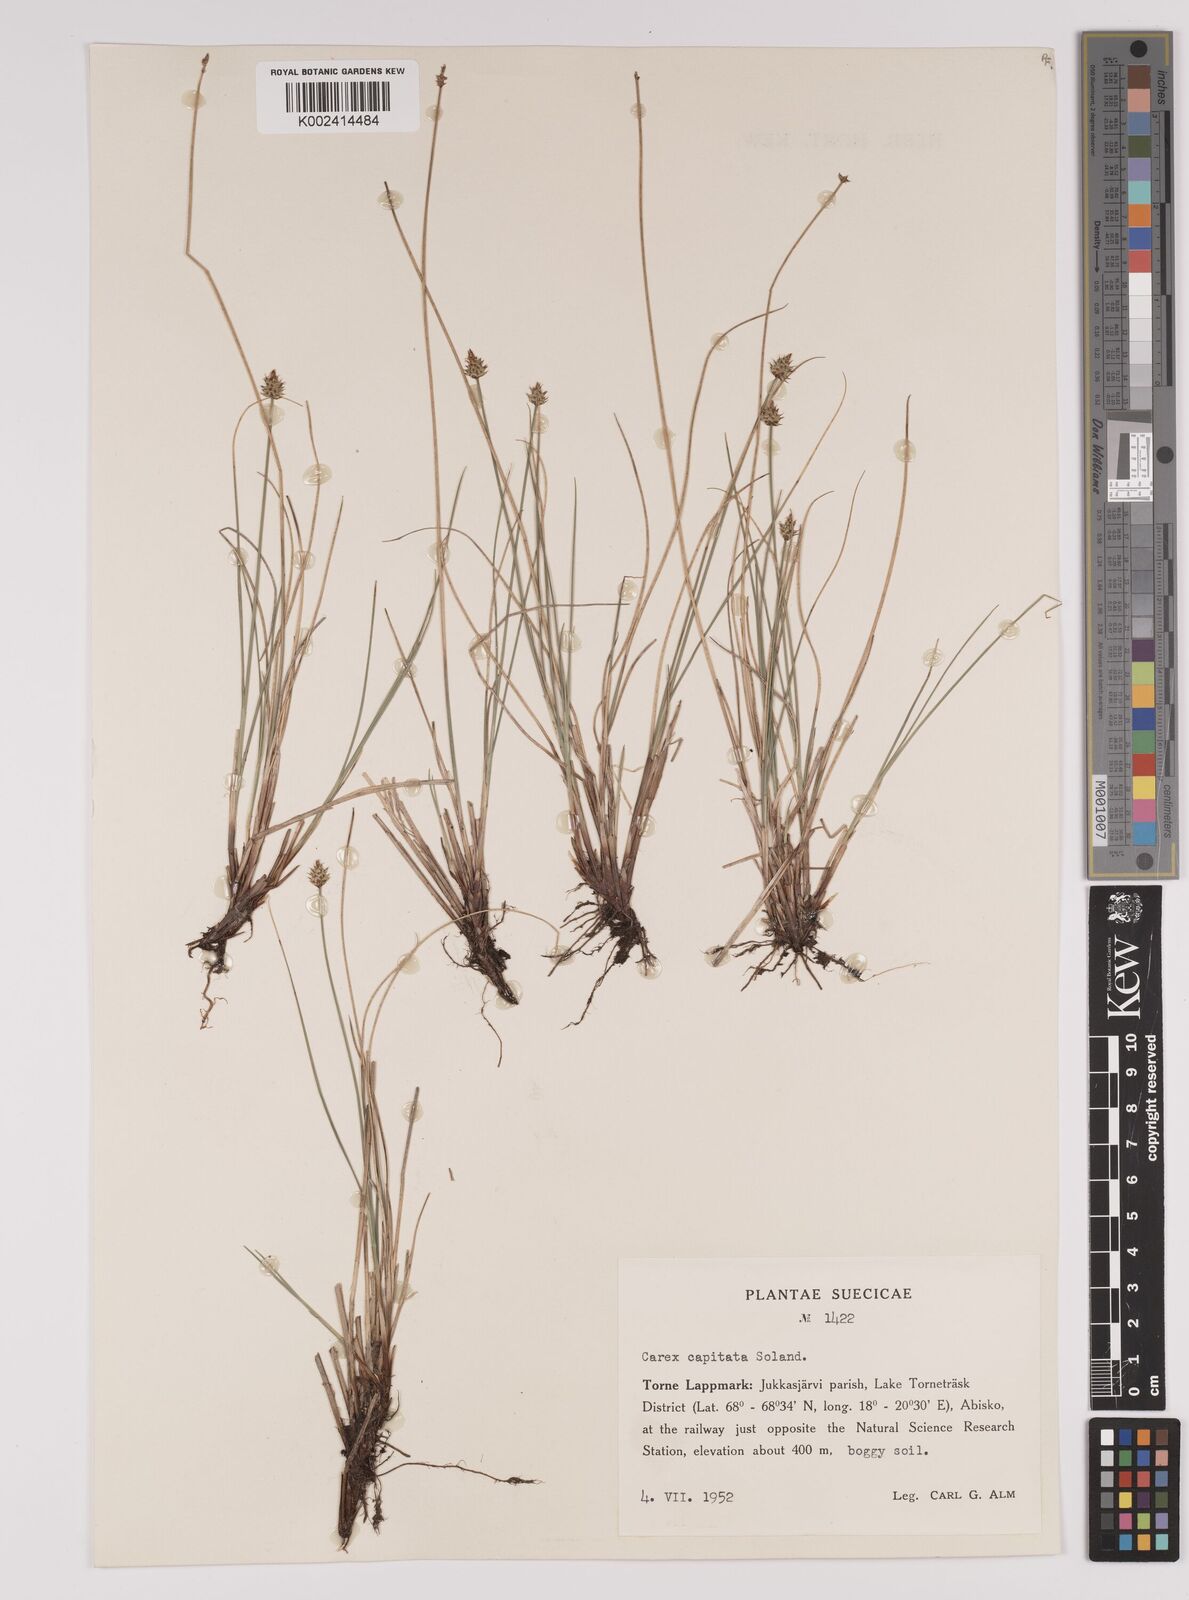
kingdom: Plantae
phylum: Tracheophyta
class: Liliopsida
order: Poales
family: Cyperaceae
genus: Carex
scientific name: Carex capitata
